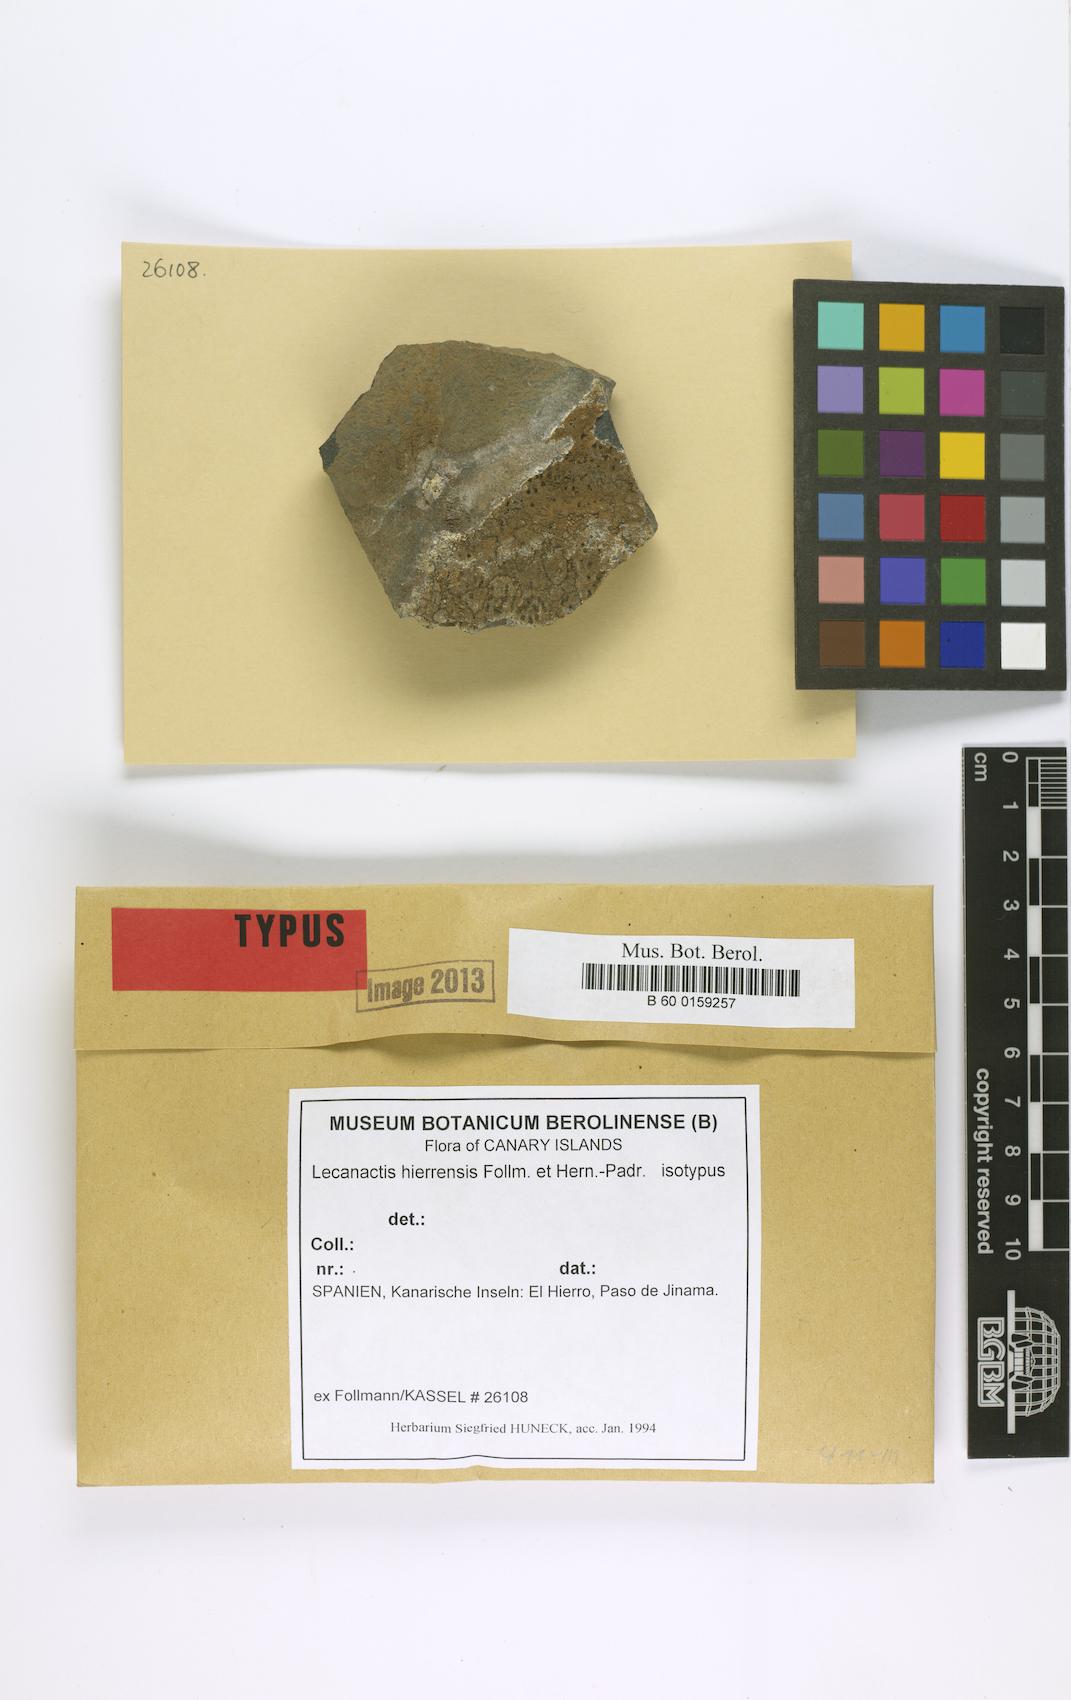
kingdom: Fungi
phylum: Ascomycota
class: Arthoniomycetes
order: Arthoniales
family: Roccellaceae
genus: Lecanactis
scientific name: Lecanactis
